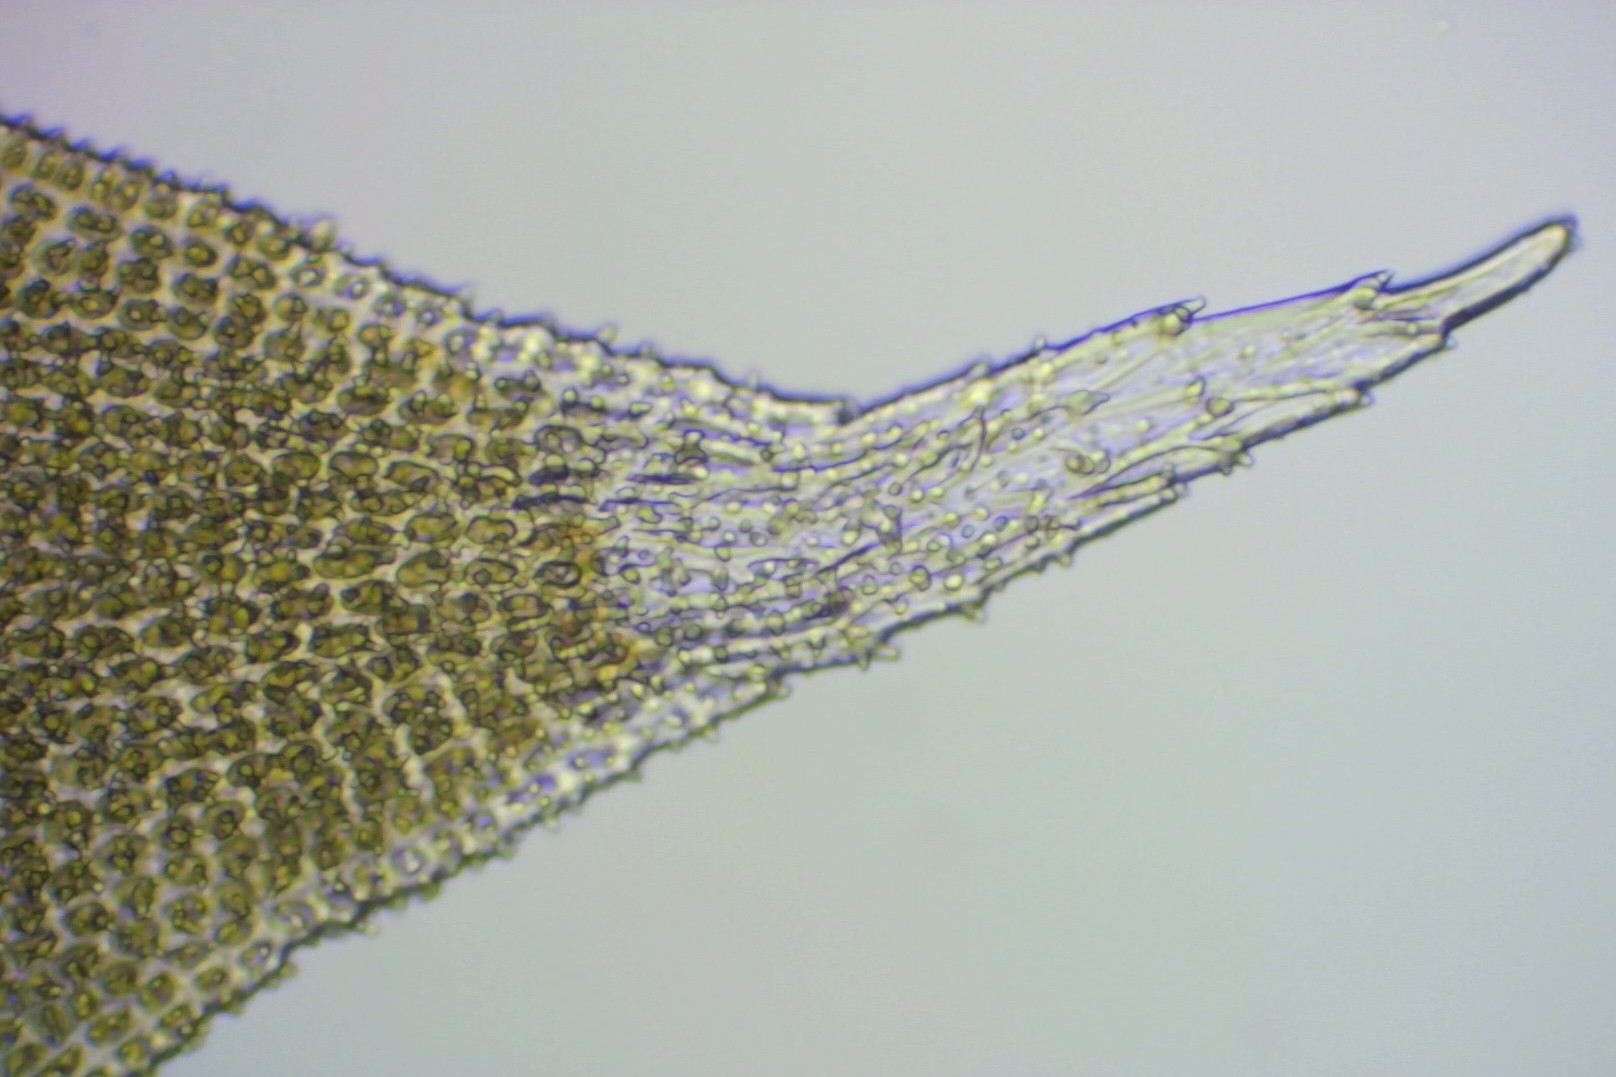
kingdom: Plantae
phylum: Bryophyta
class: Bryopsida
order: Hedwigiales
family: Hedwigiaceae
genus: Hedwigia
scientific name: Hedwigia ciliata
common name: Hvidspidset hedwigia
